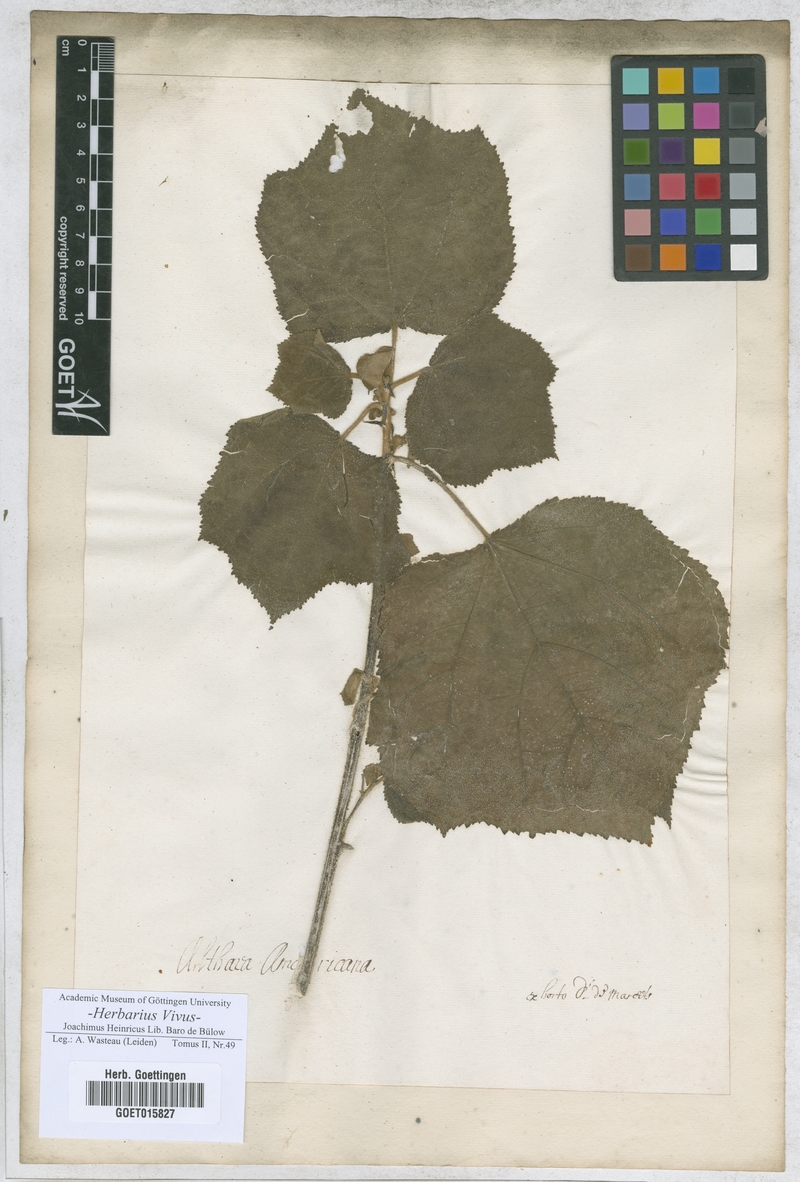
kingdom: Plantae
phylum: Tracheophyta
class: Magnoliopsida
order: Malvales
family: Malvaceae
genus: Althaea
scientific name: Althaea
